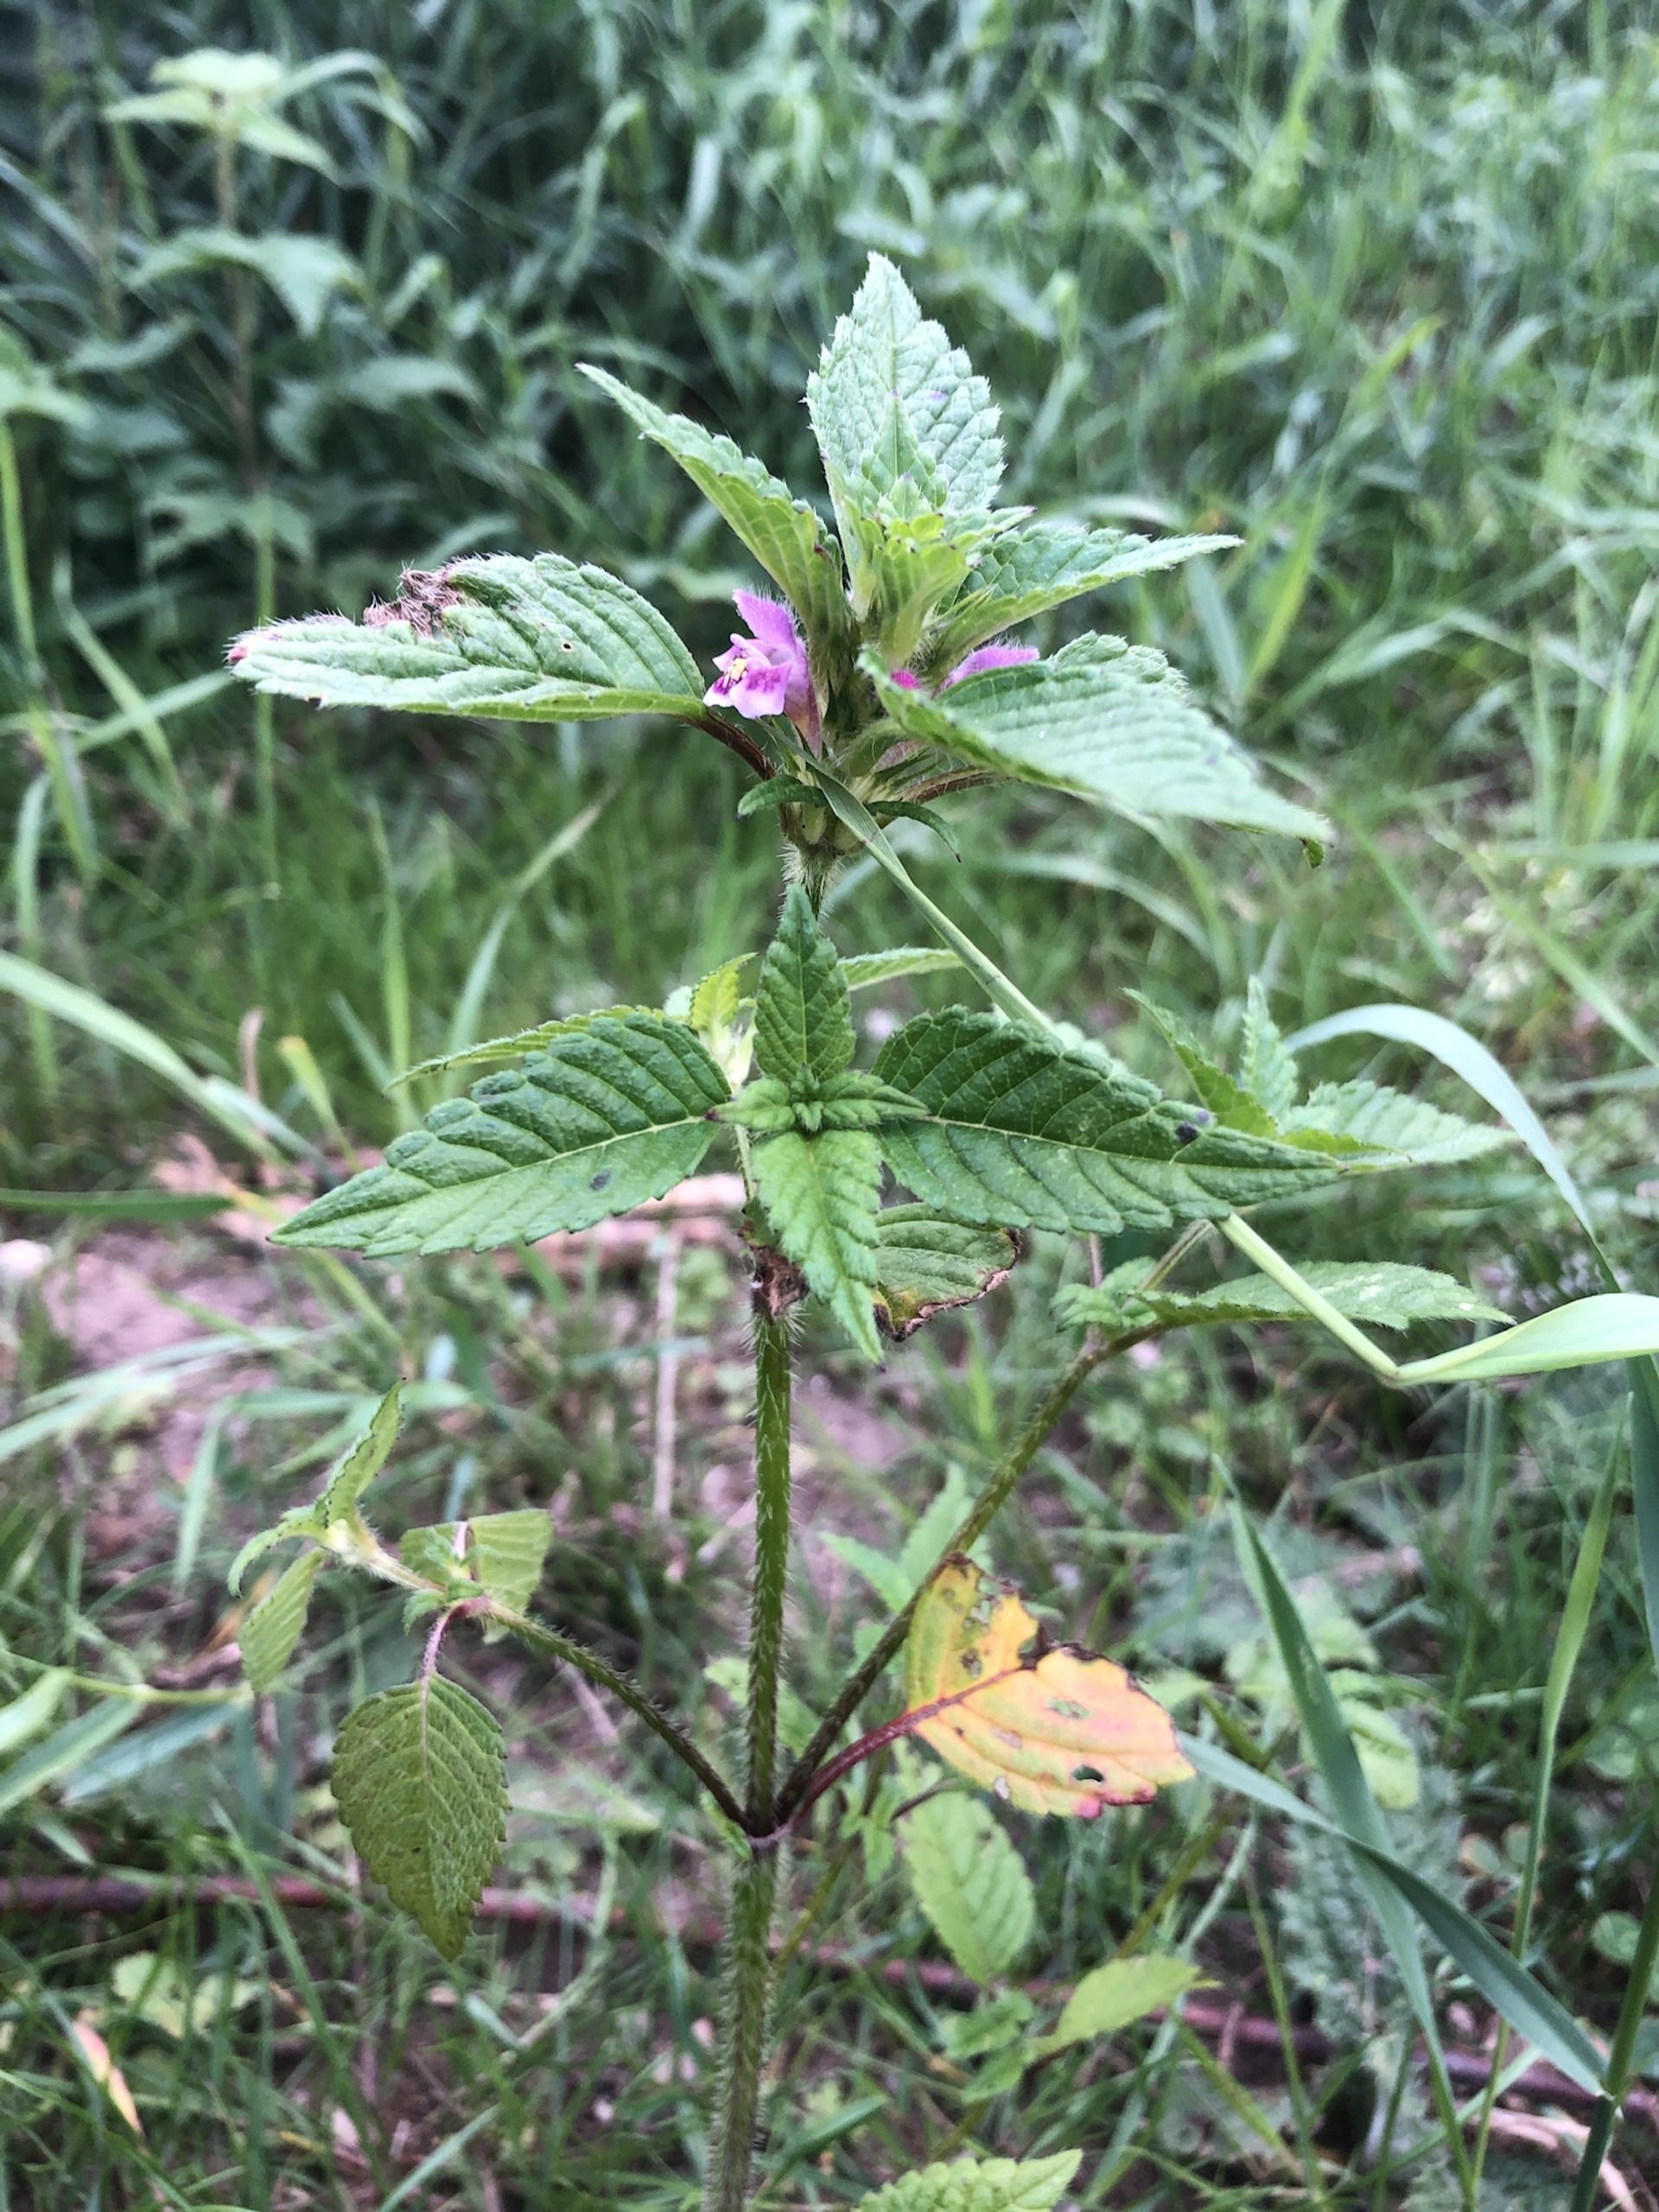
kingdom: Plantae
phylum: Tracheophyta
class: Magnoliopsida
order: Lamiales
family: Lamiaceae
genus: Galeopsis
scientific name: Galeopsis tetrahit
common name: Almindelig hanekro
